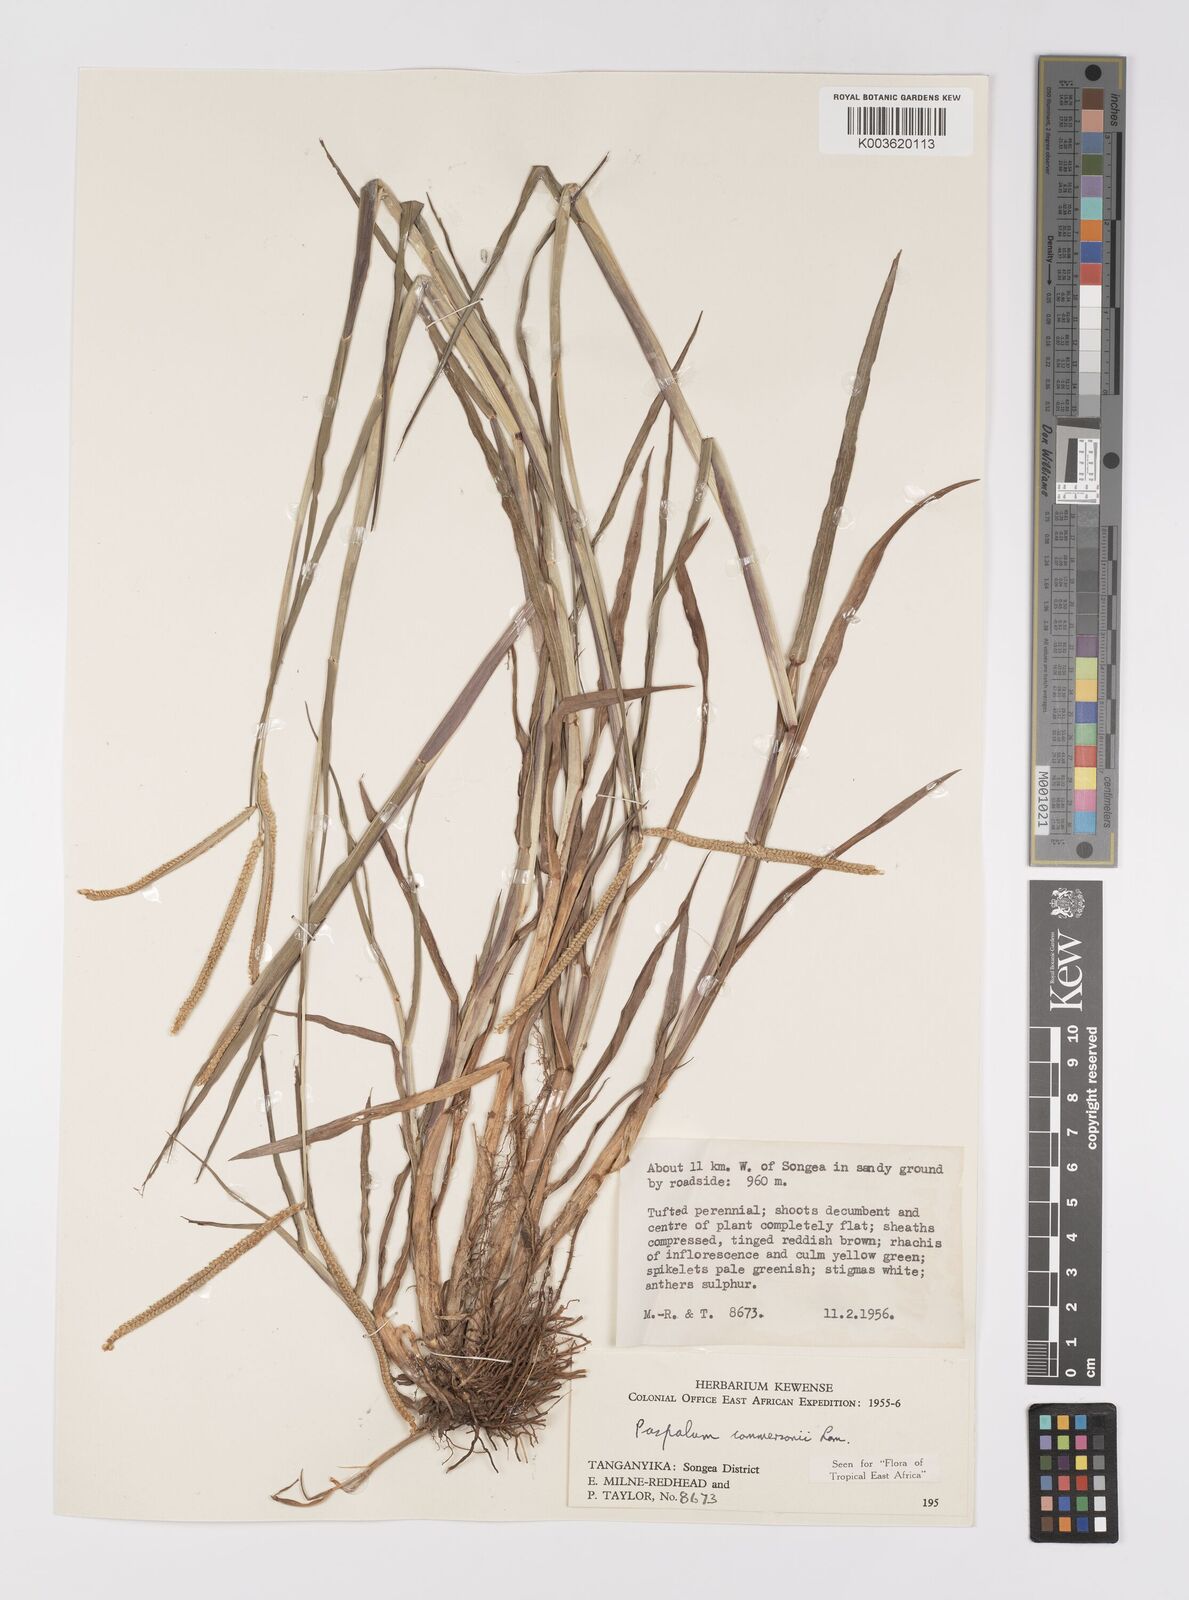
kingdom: Plantae
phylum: Tracheophyta
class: Liliopsida
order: Poales
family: Poaceae
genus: Paspalum
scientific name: Paspalum scrobiculatum
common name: Kodo millet
